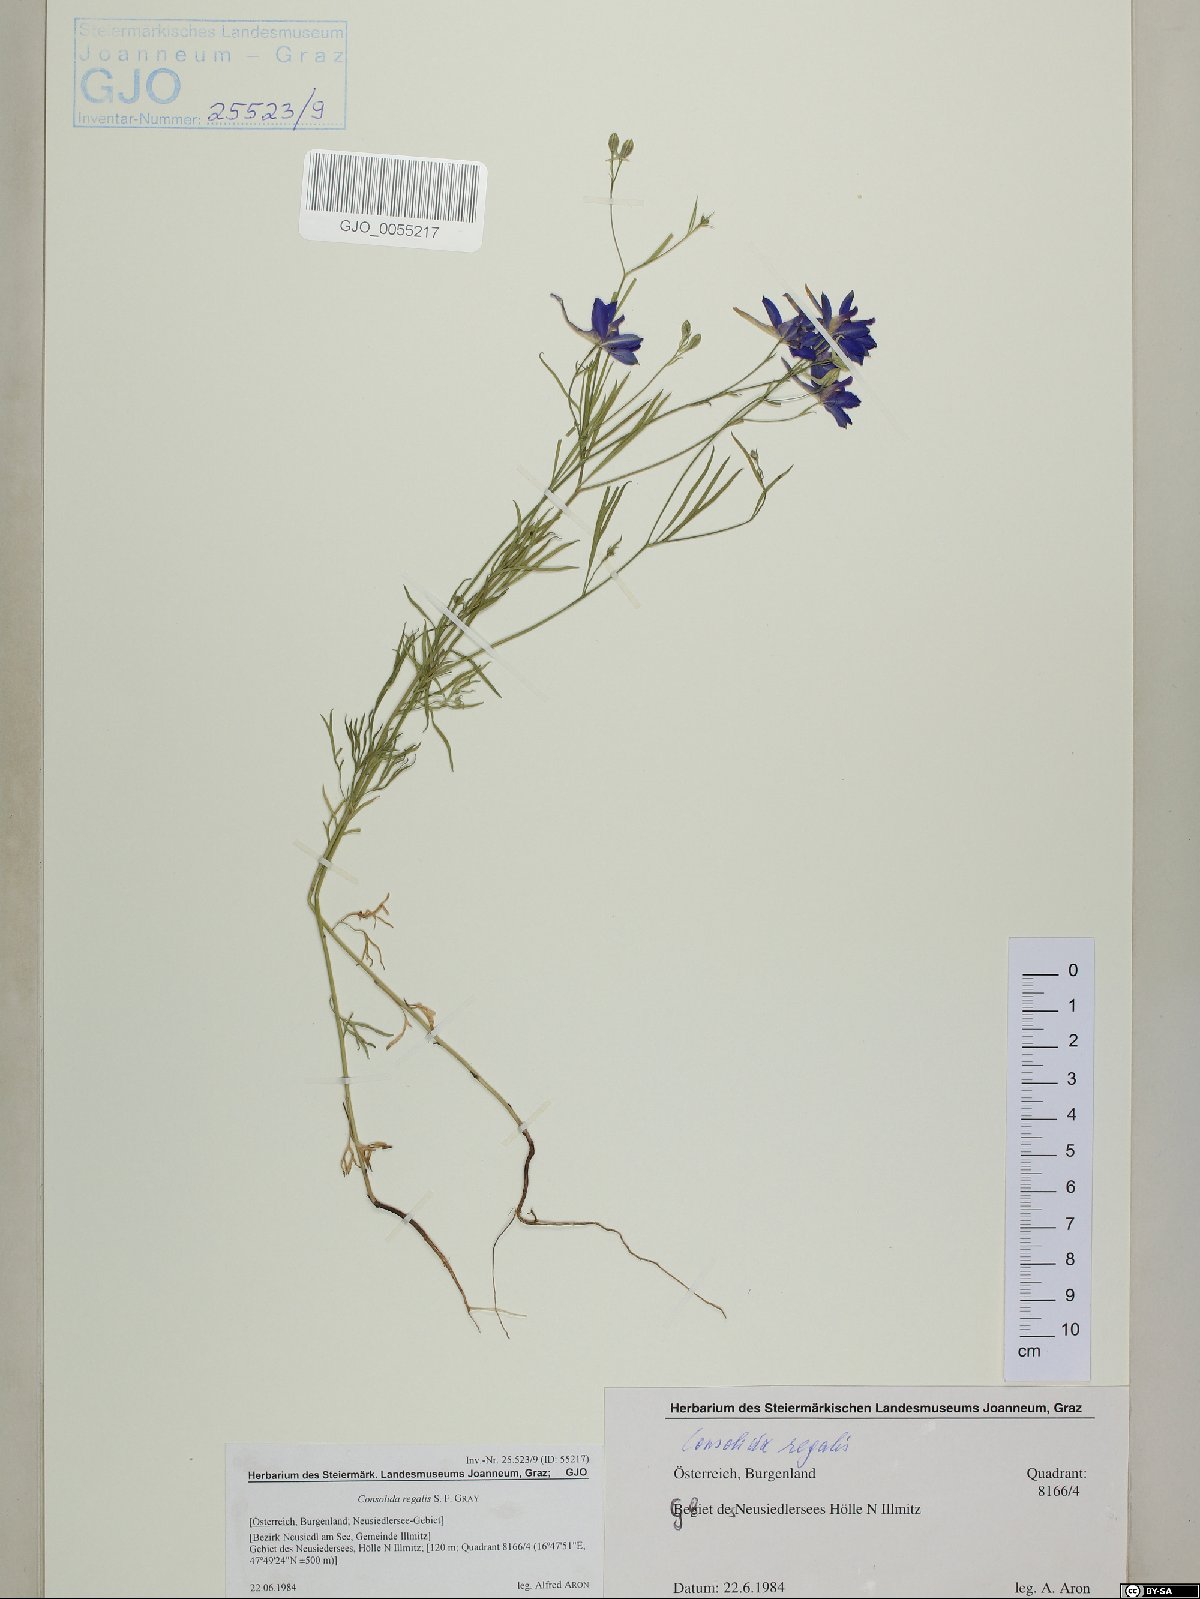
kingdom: Plantae
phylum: Tracheophyta
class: Magnoliopsida
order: Ranunculales
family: Ranunculaceae
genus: Delphinium
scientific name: Delphinium consolida
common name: Branching larkspur
